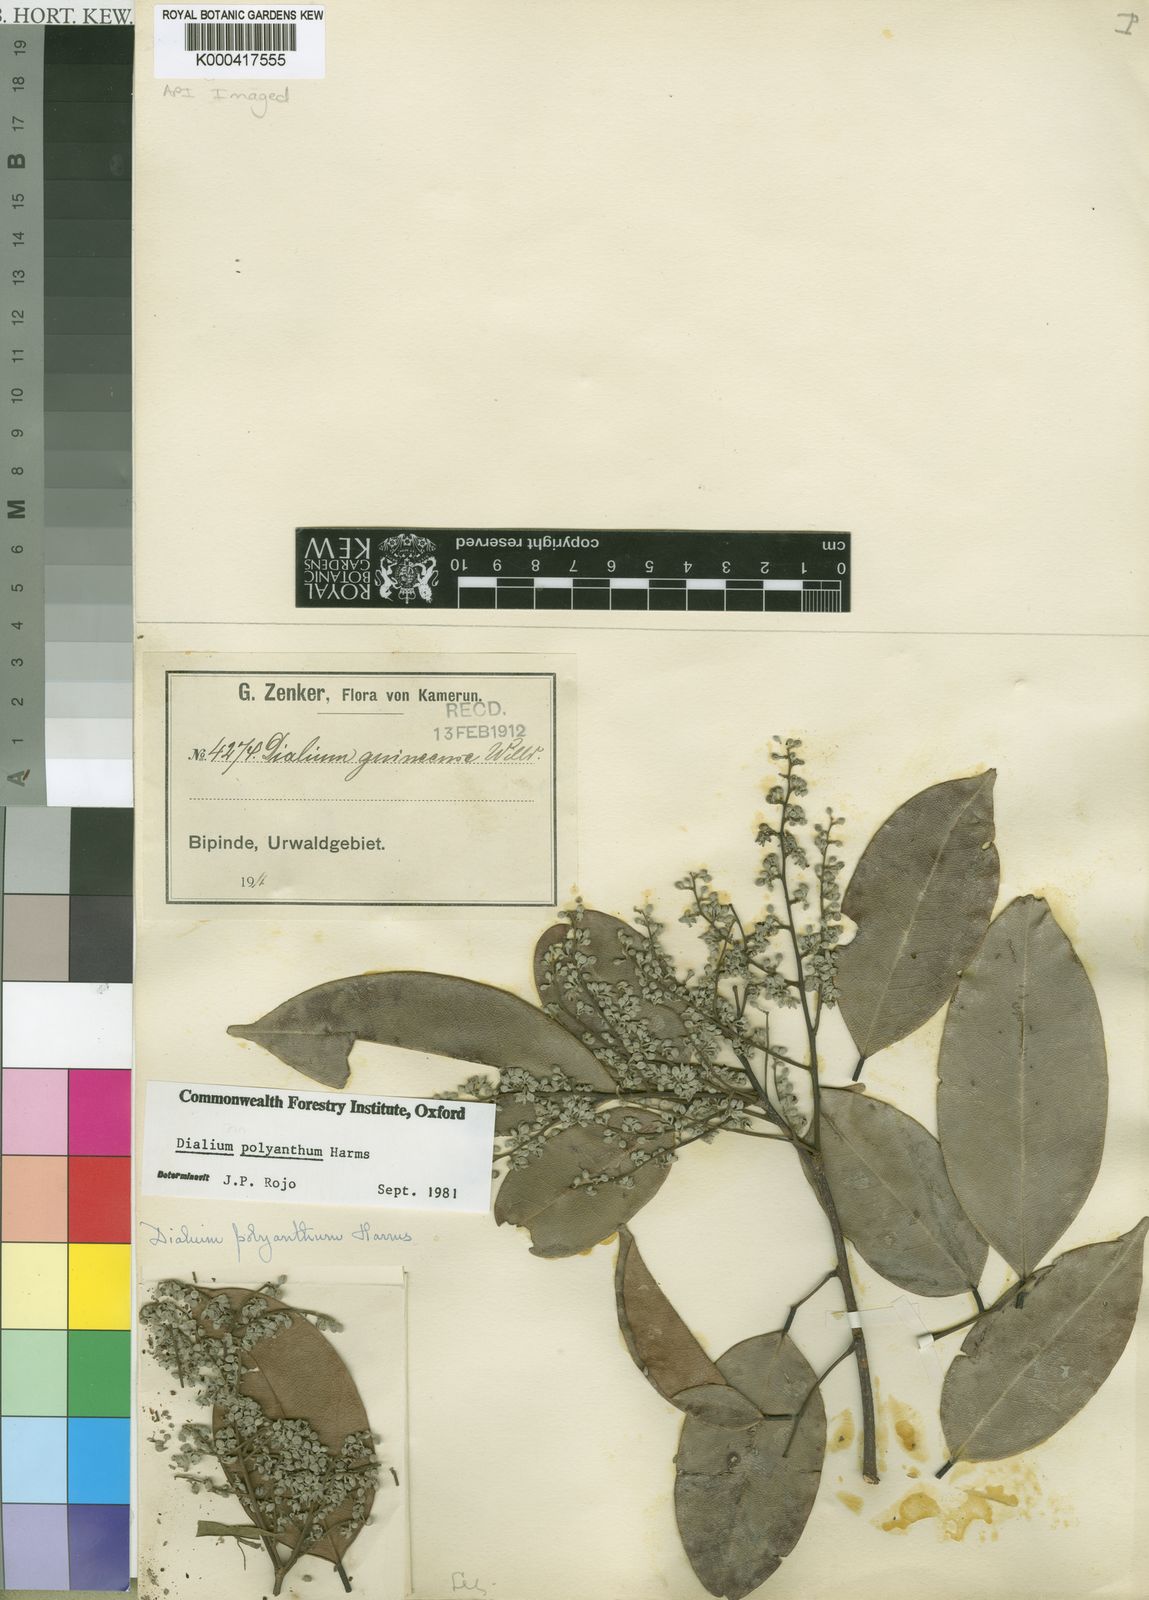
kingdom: Plantae
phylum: Tracheophyta
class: Magnoliopsida
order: Fabales
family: Fabaceae
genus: Dialium
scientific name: Dialium polyanthum
